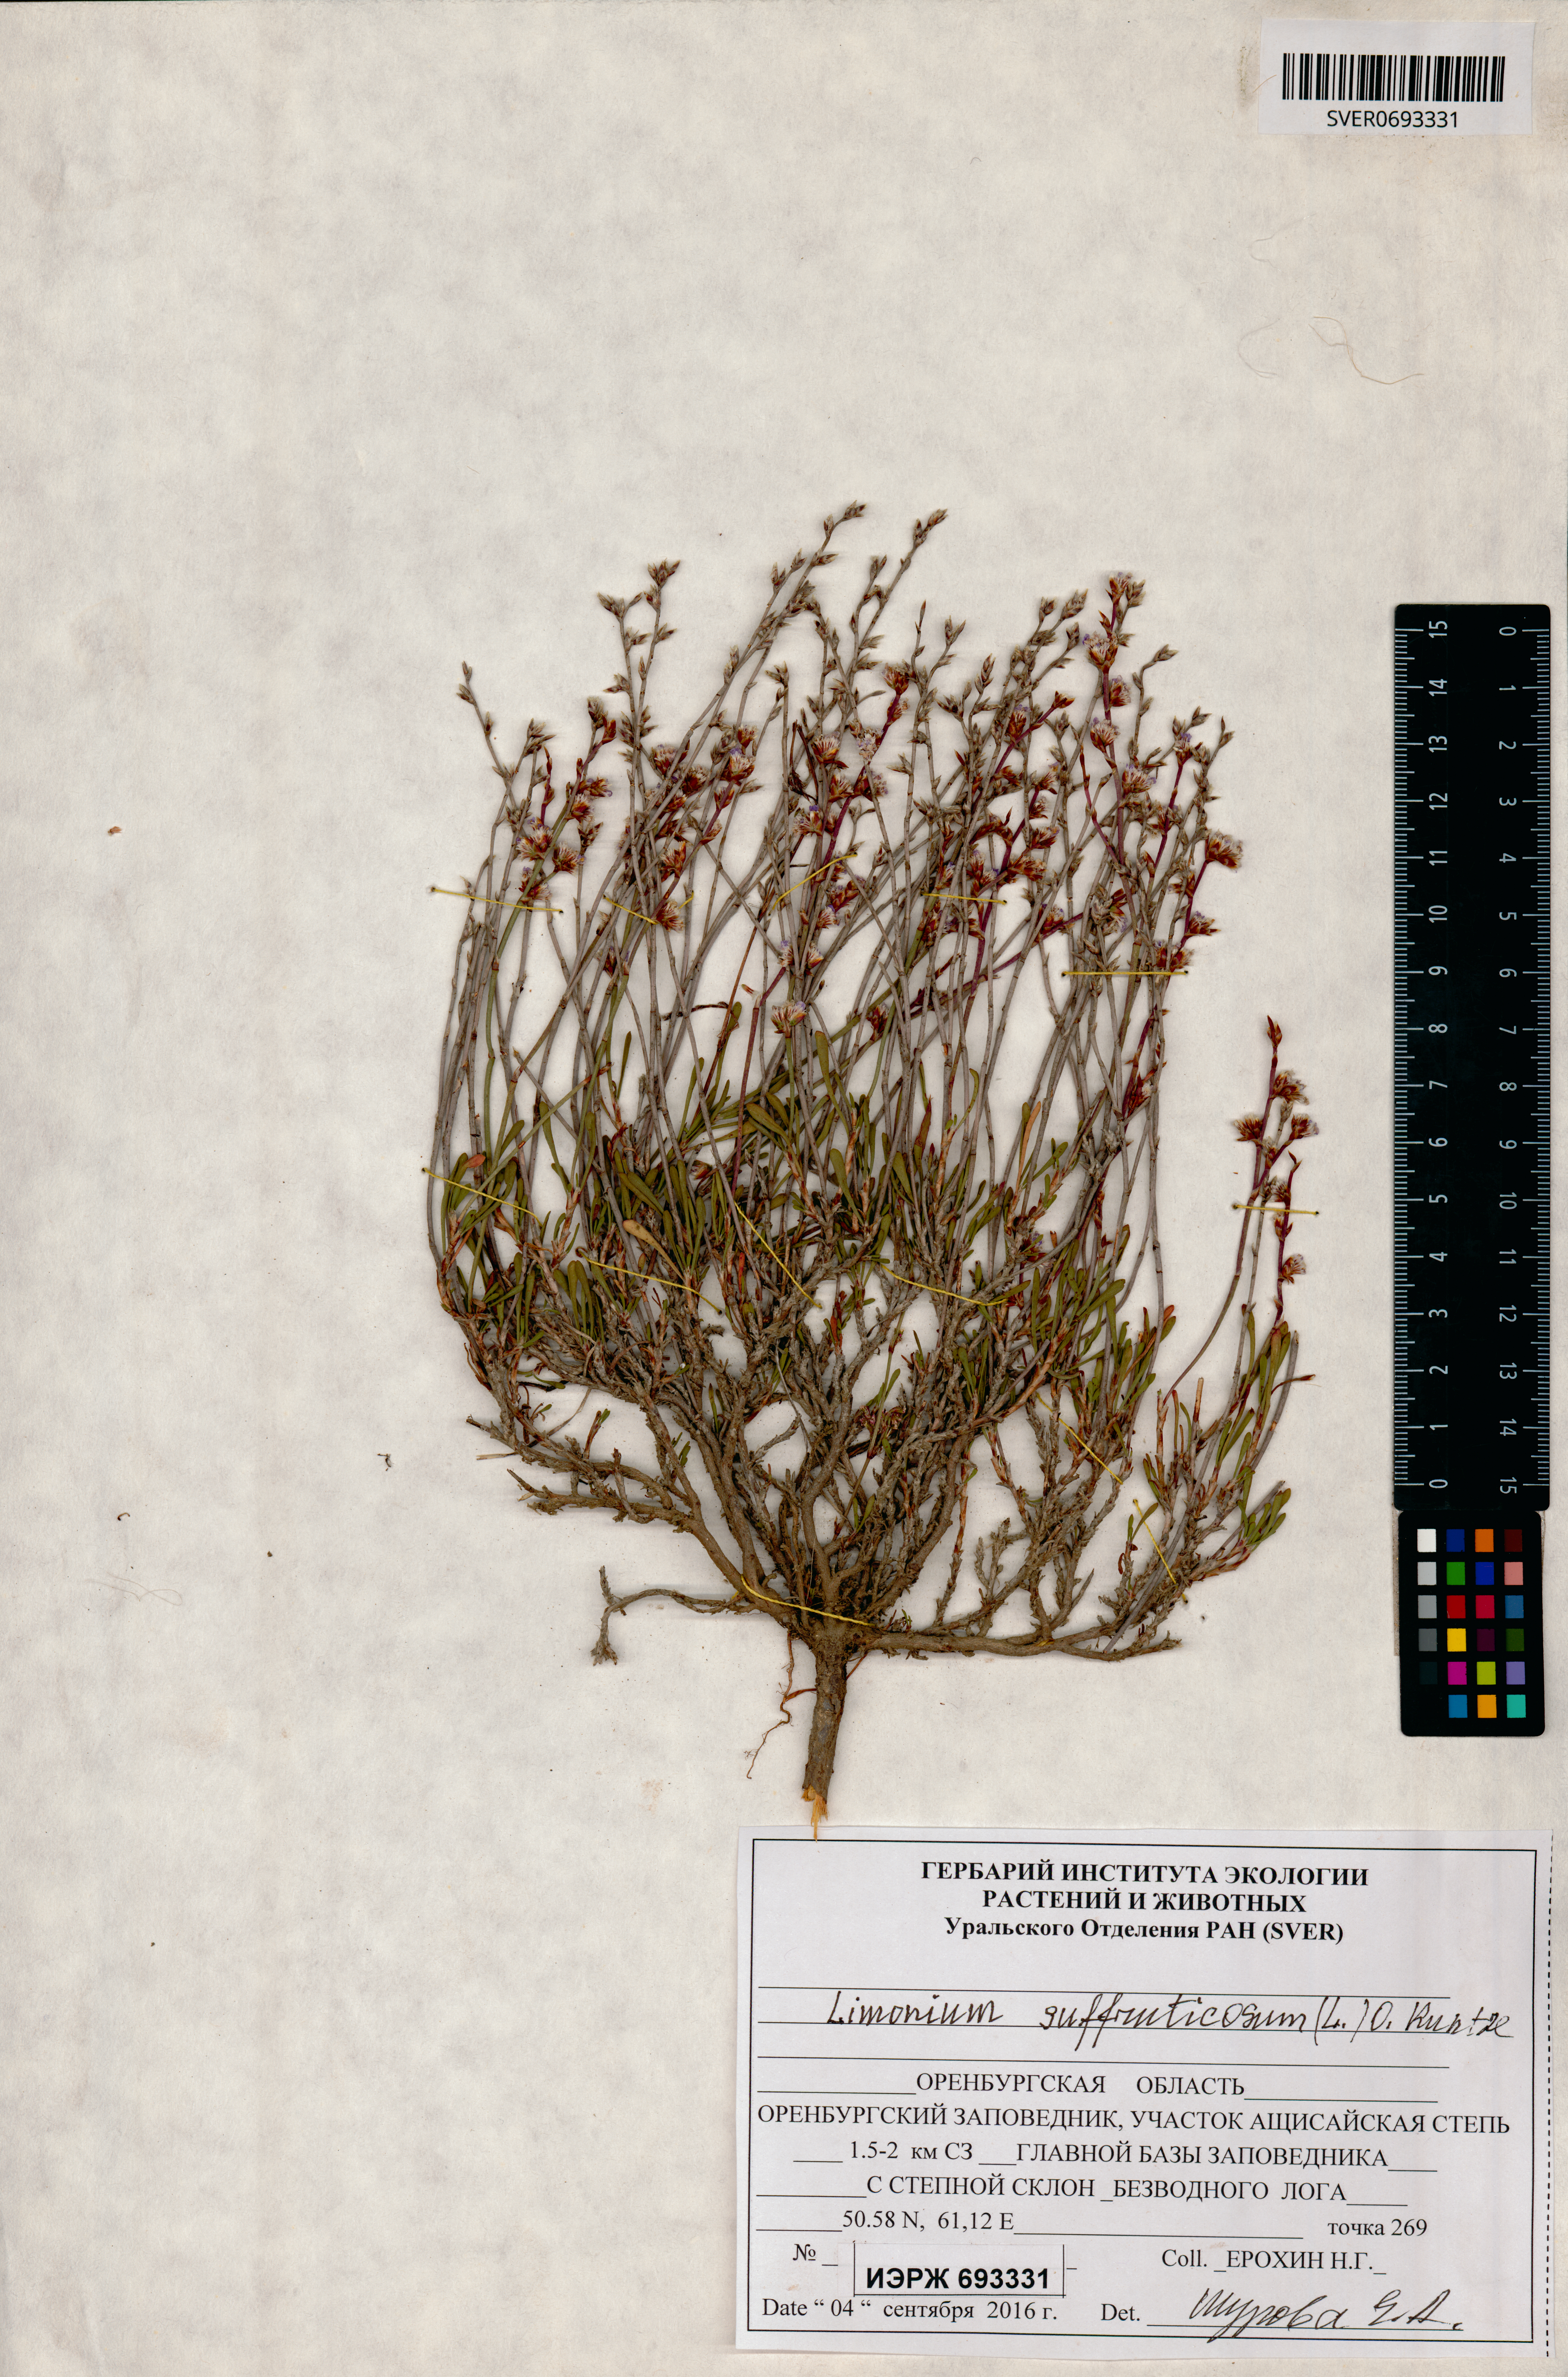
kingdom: Plantae
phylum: Tracheophyta
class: Magnoliopsida
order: Caryophyllales
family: Plumbaginaceae
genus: Limonium
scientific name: Limonium suffruticosum
